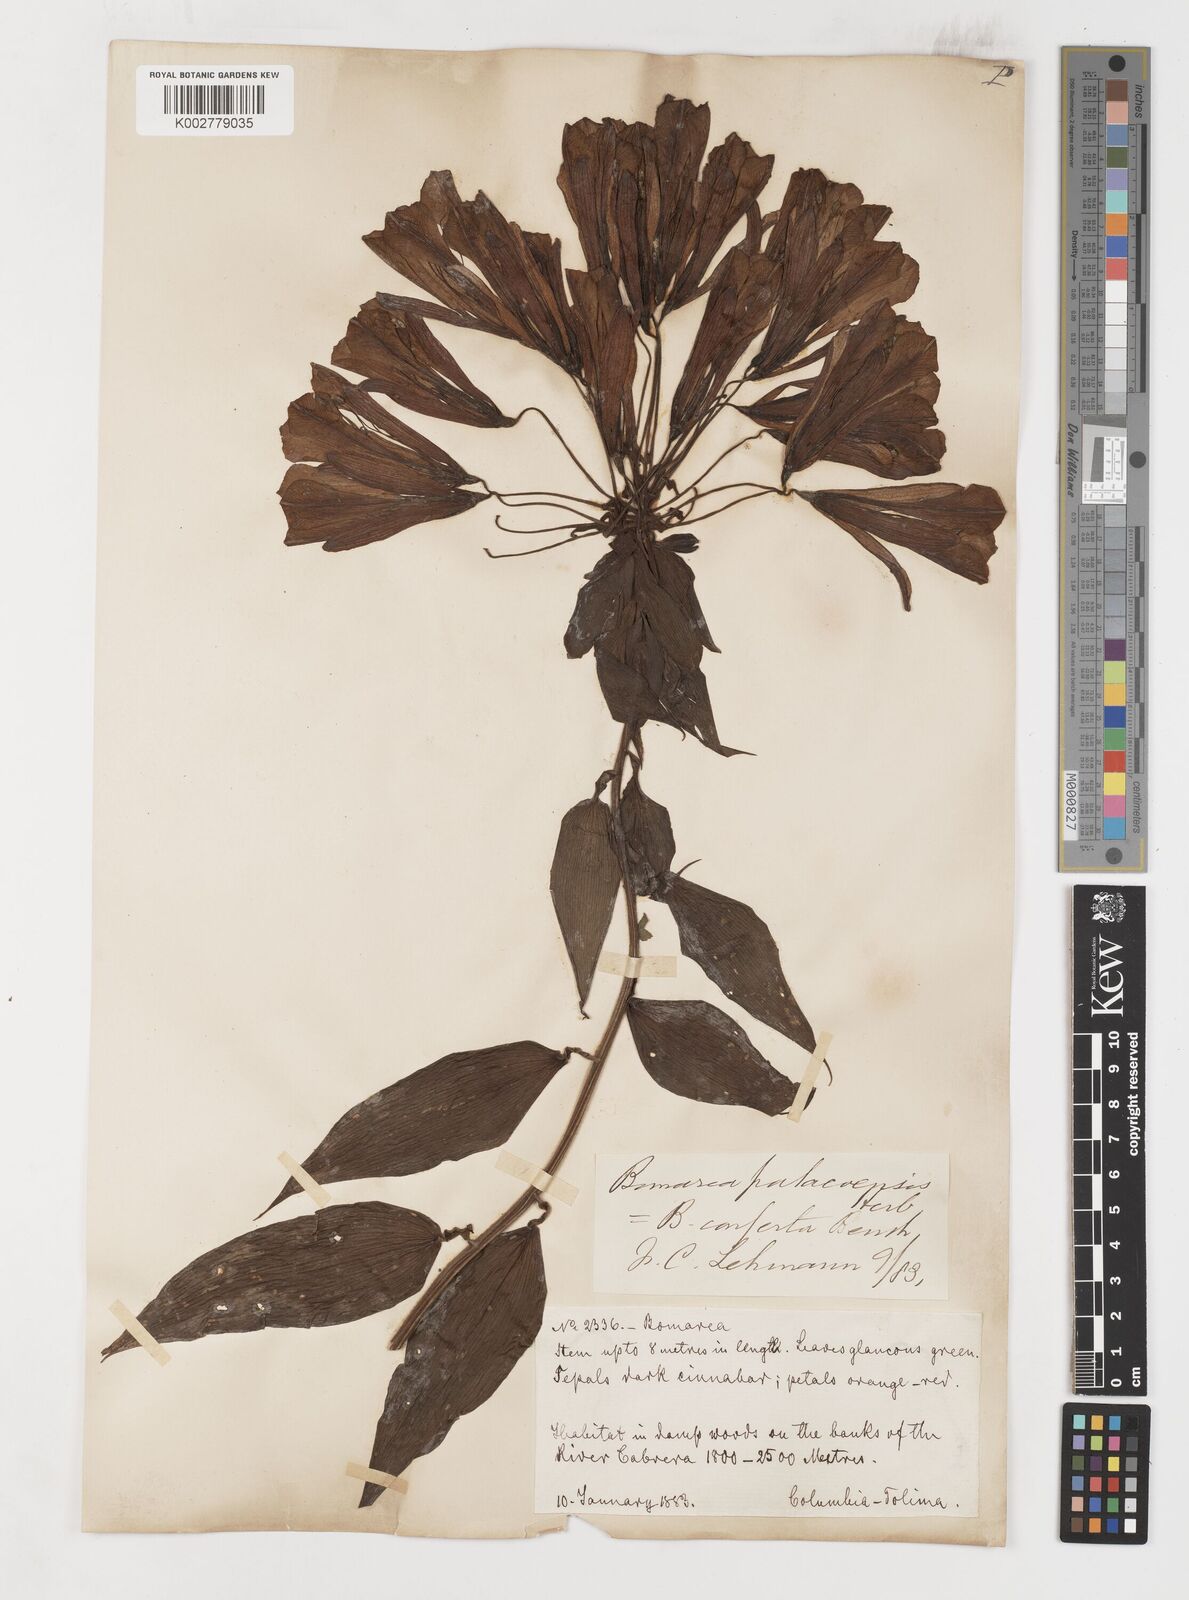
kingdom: Plantae
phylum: Tracheophyta
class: Liliopsida
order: Liliales
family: Alstroemeriaceae
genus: Bomarea
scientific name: Bomarea patinii
